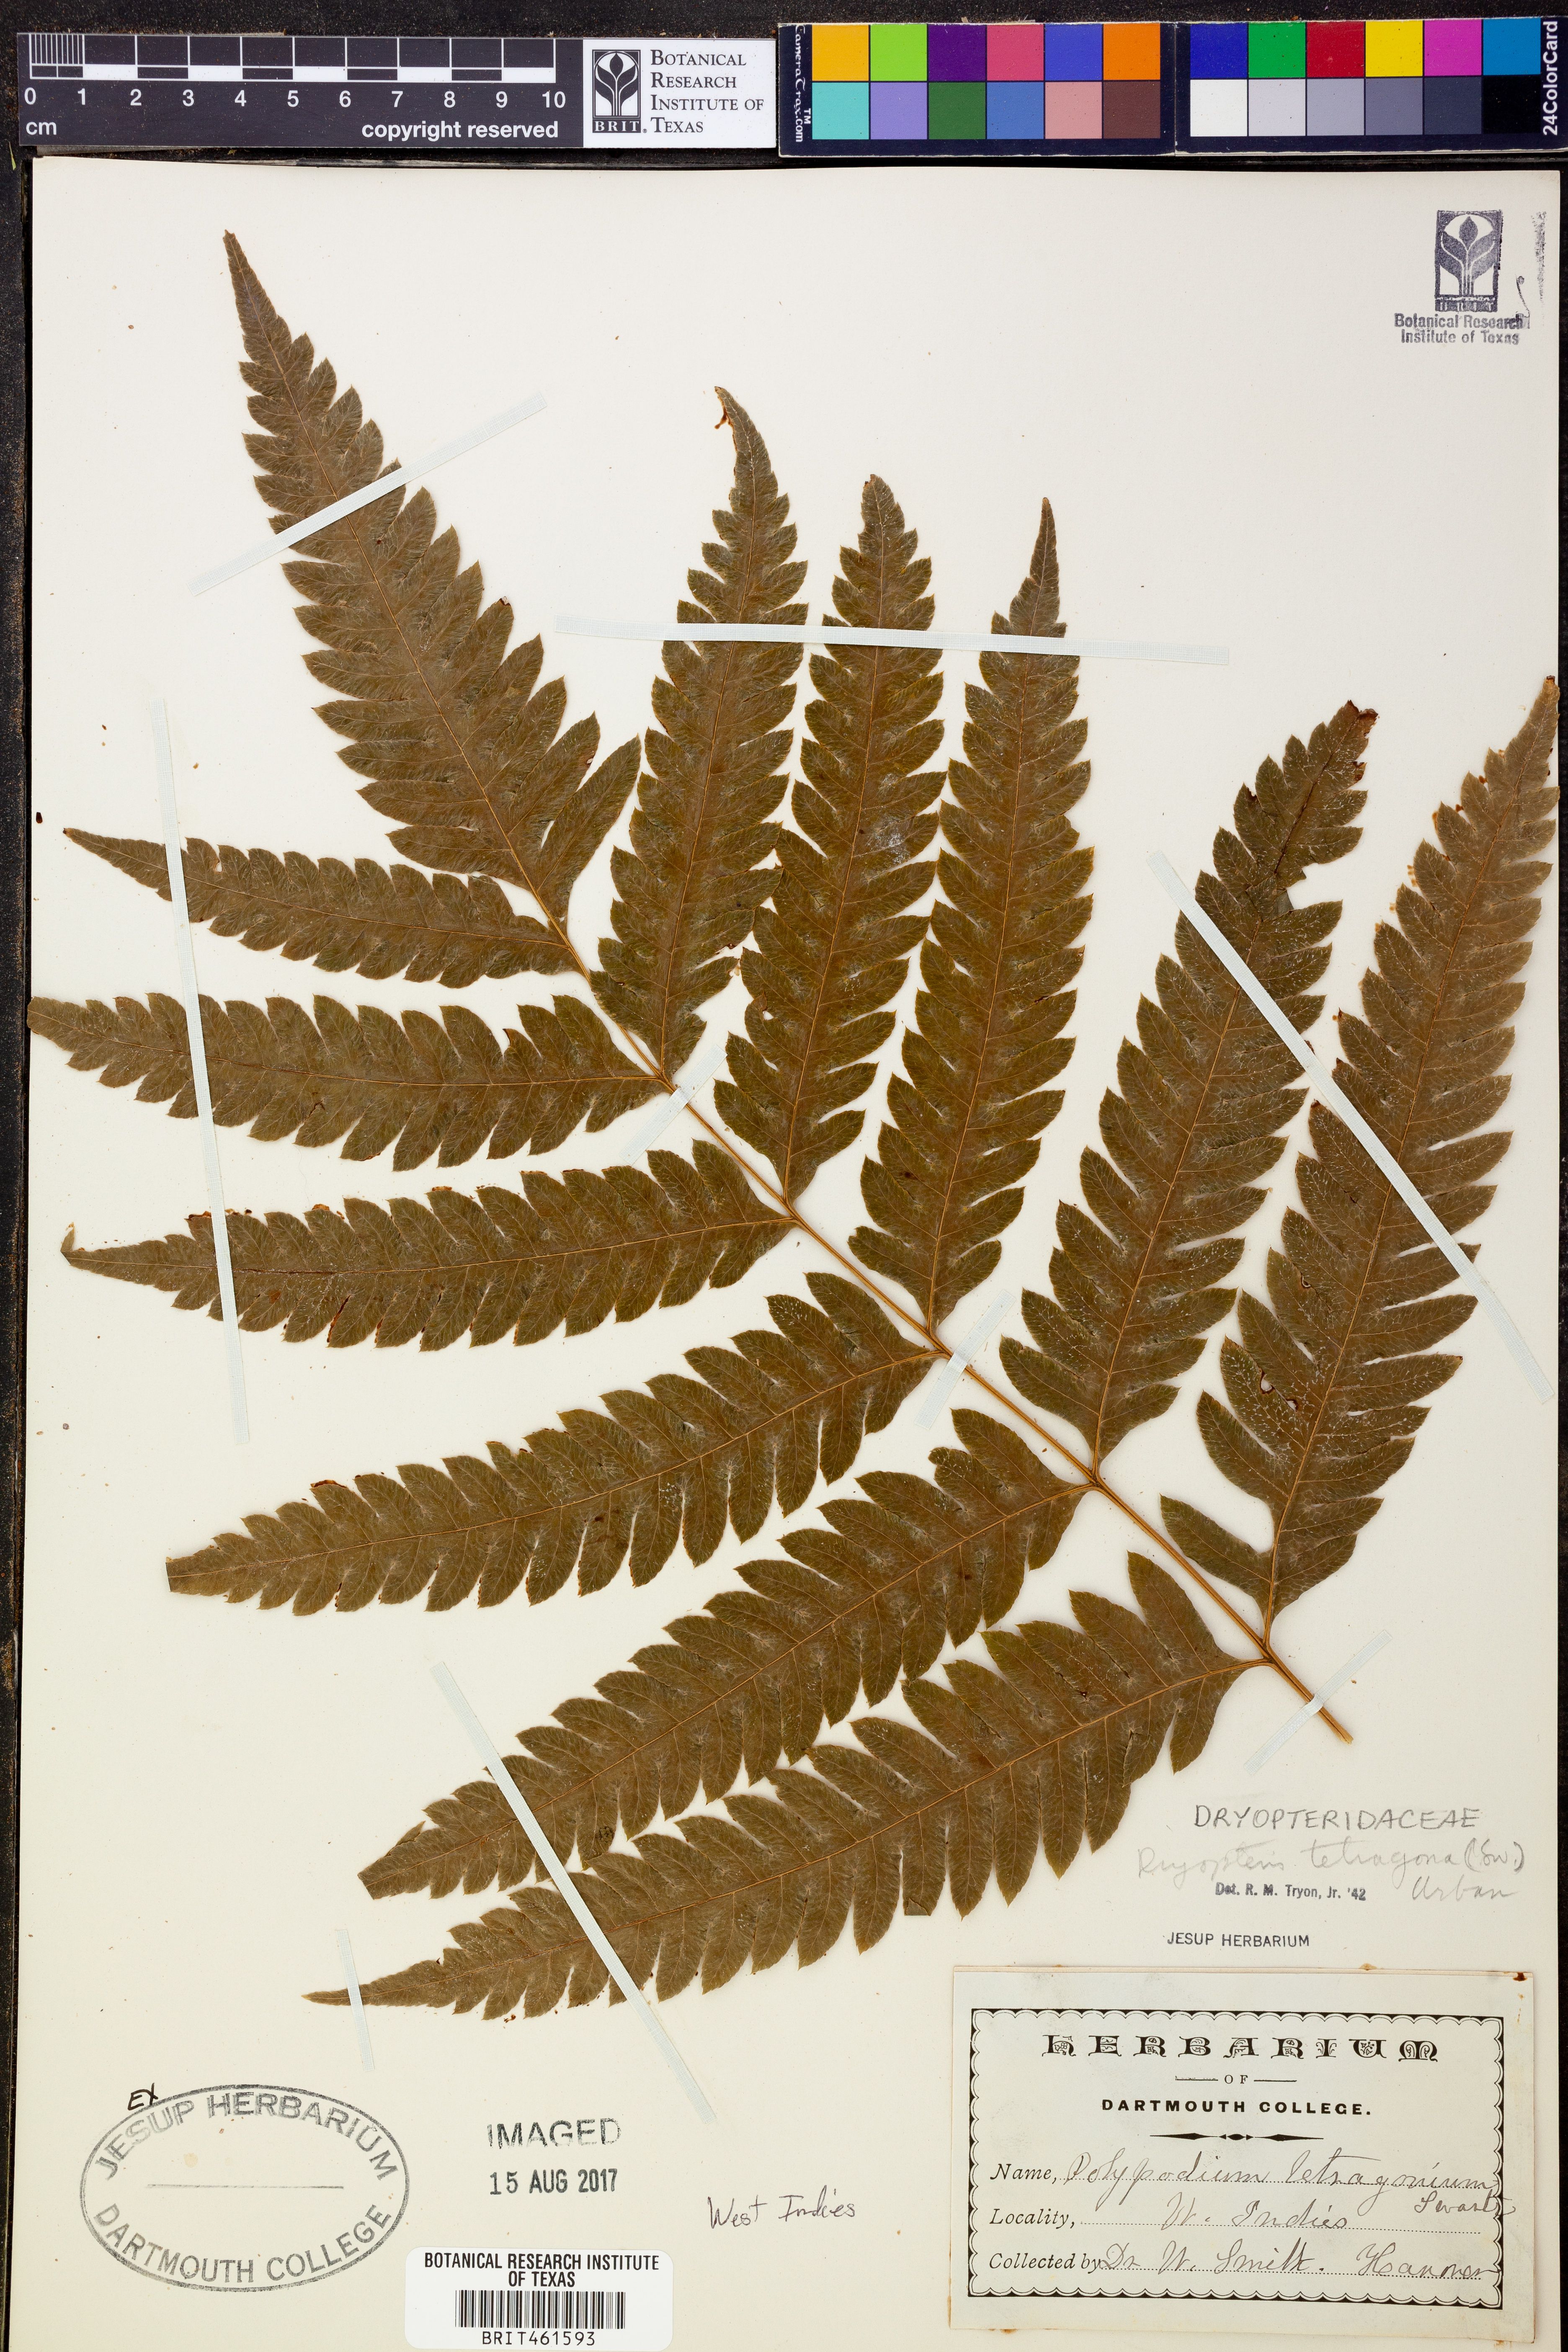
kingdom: Plantae
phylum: Tracheophyta
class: Polypodiopsida
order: Polypodiales
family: Thelypteridaceae
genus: Goniopteris
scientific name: Goniopteris tetragona
